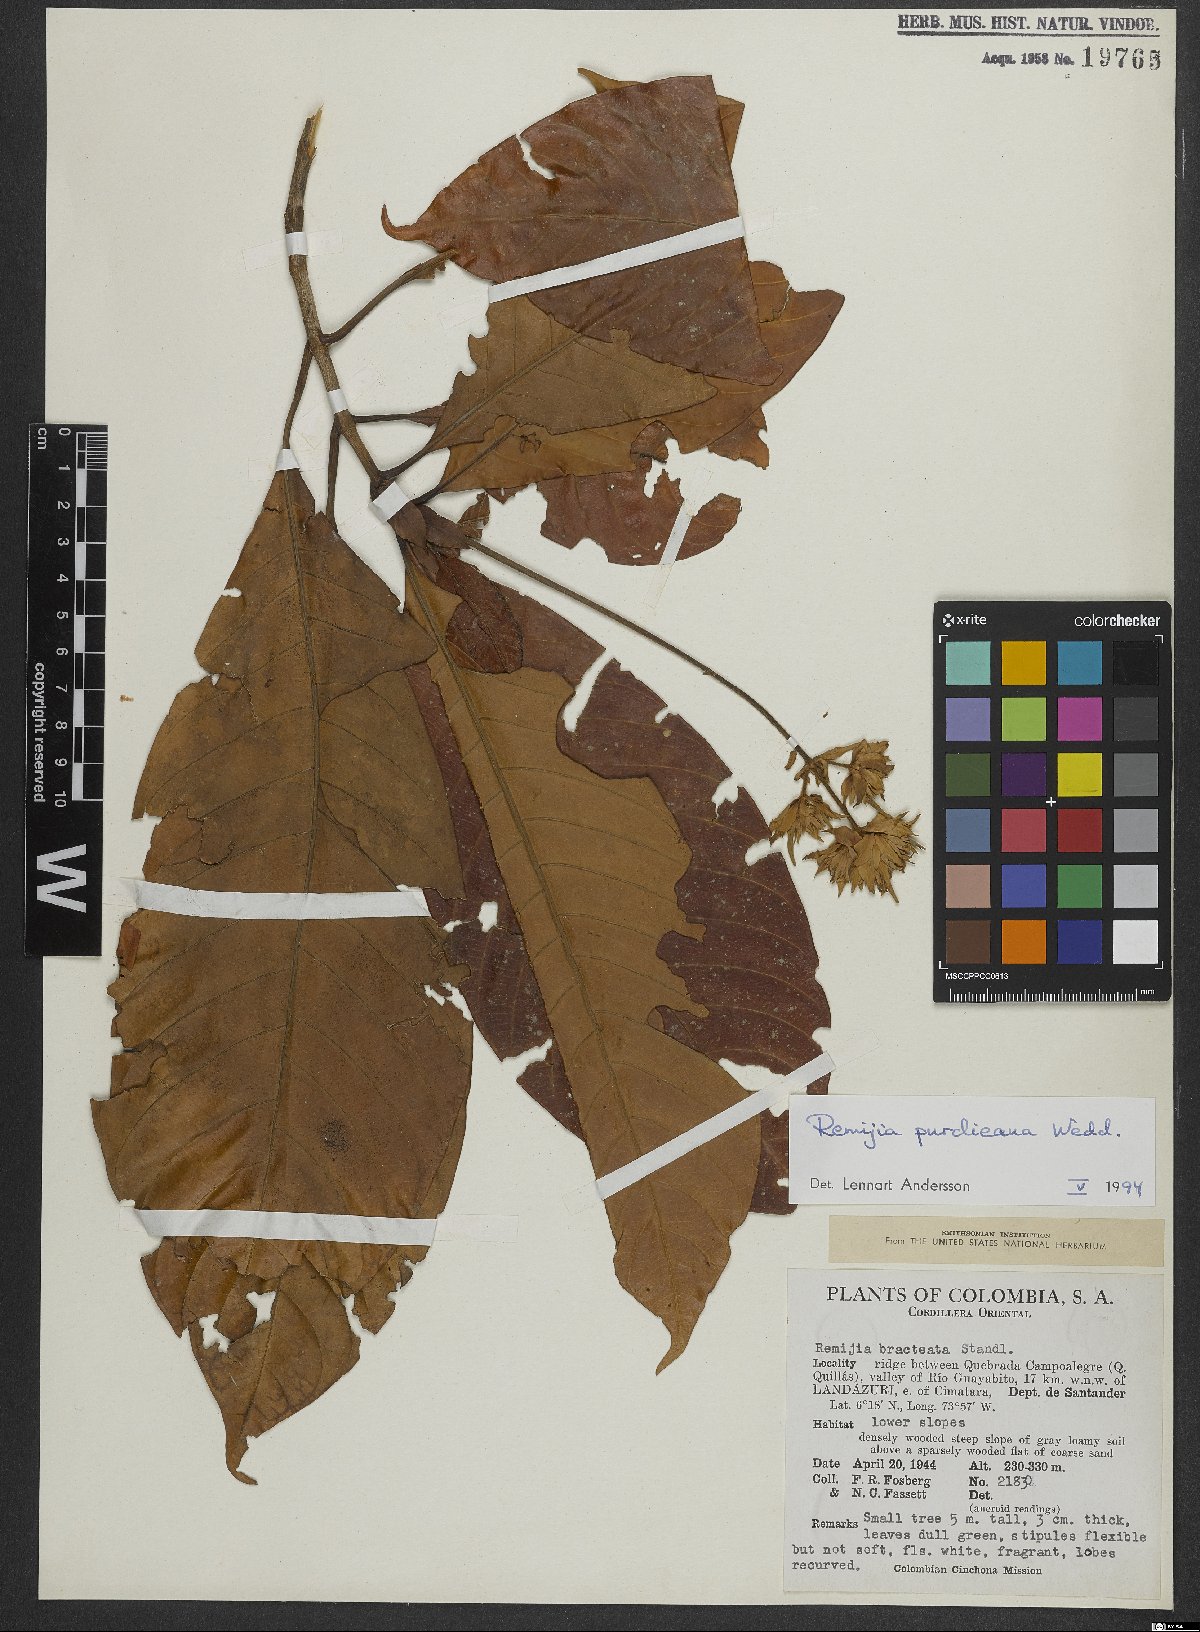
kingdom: Plantae
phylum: Tracheophyta
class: Magnoliopsida
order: Gentianales
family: Rubiaceae
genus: Ciliosemina
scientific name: Ciliosemina purdieana
